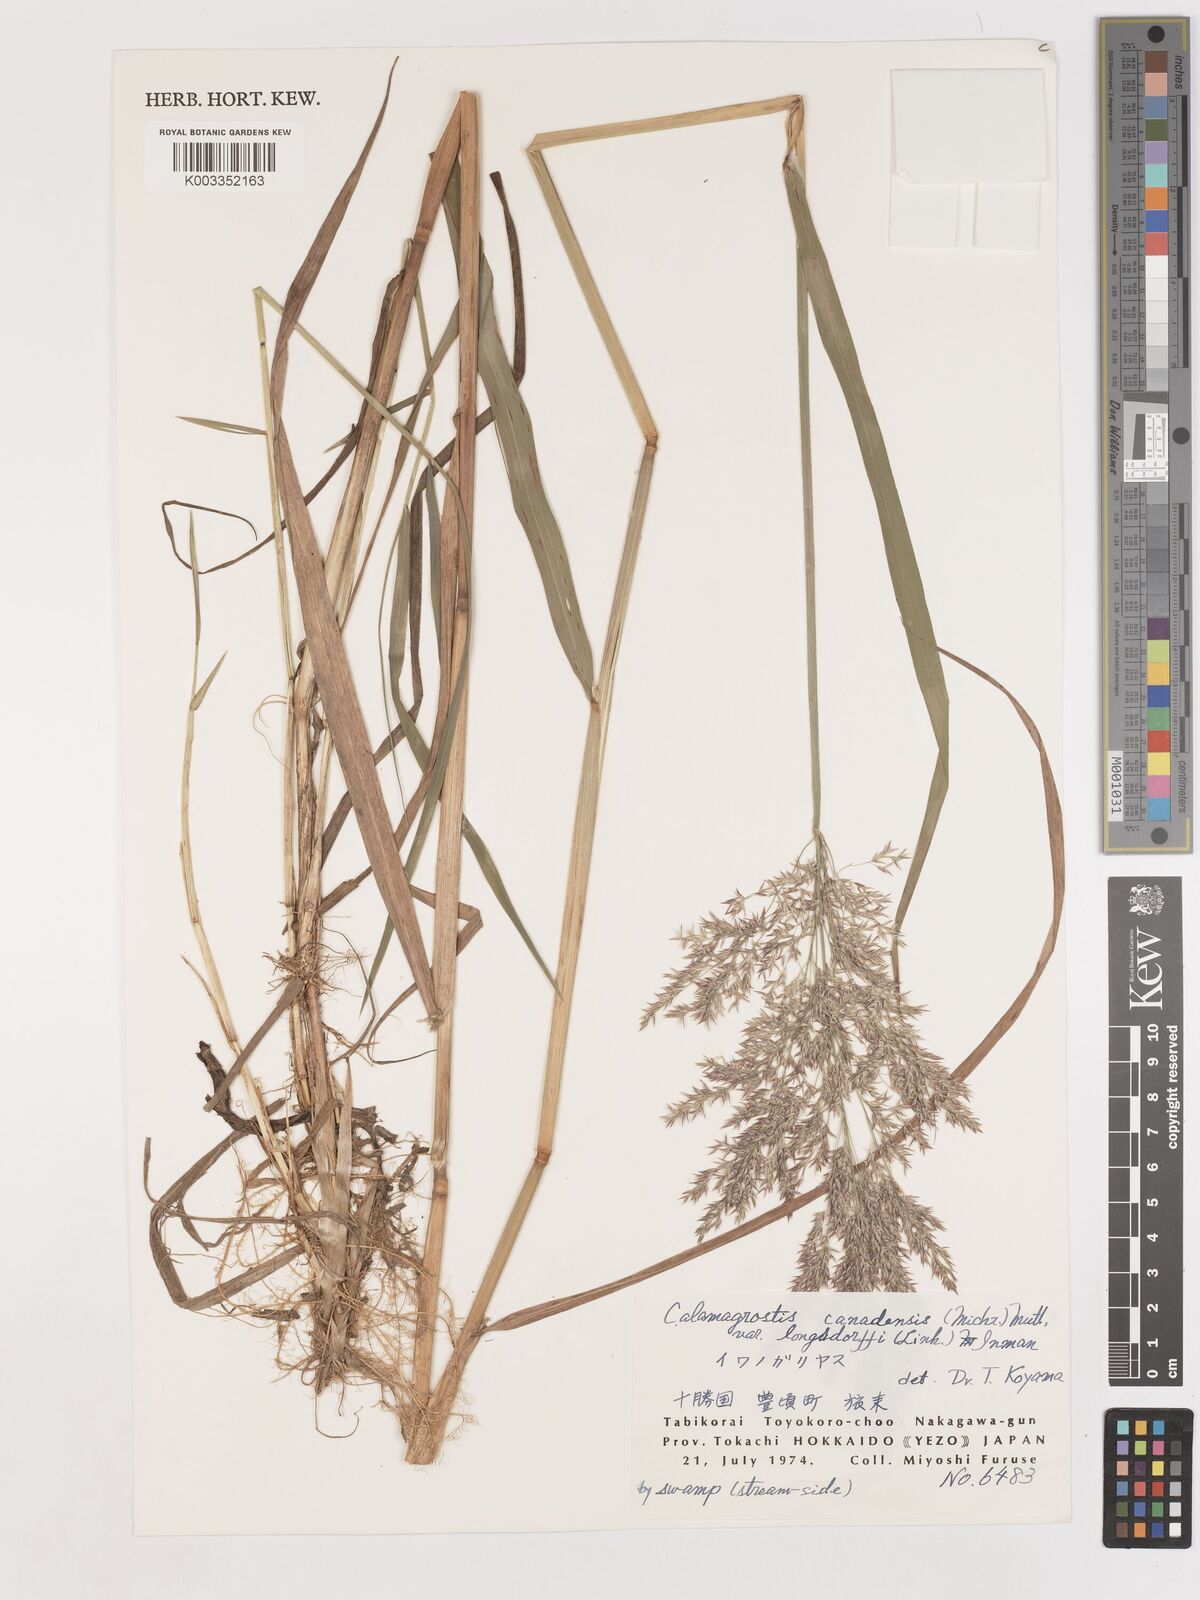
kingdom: Plantae
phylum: Tracheophyta
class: Liliopsida
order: Poales
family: Poaceae
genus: Calamagrostis
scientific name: Calamagrostis purpurea
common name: Scandinavian small-reed
